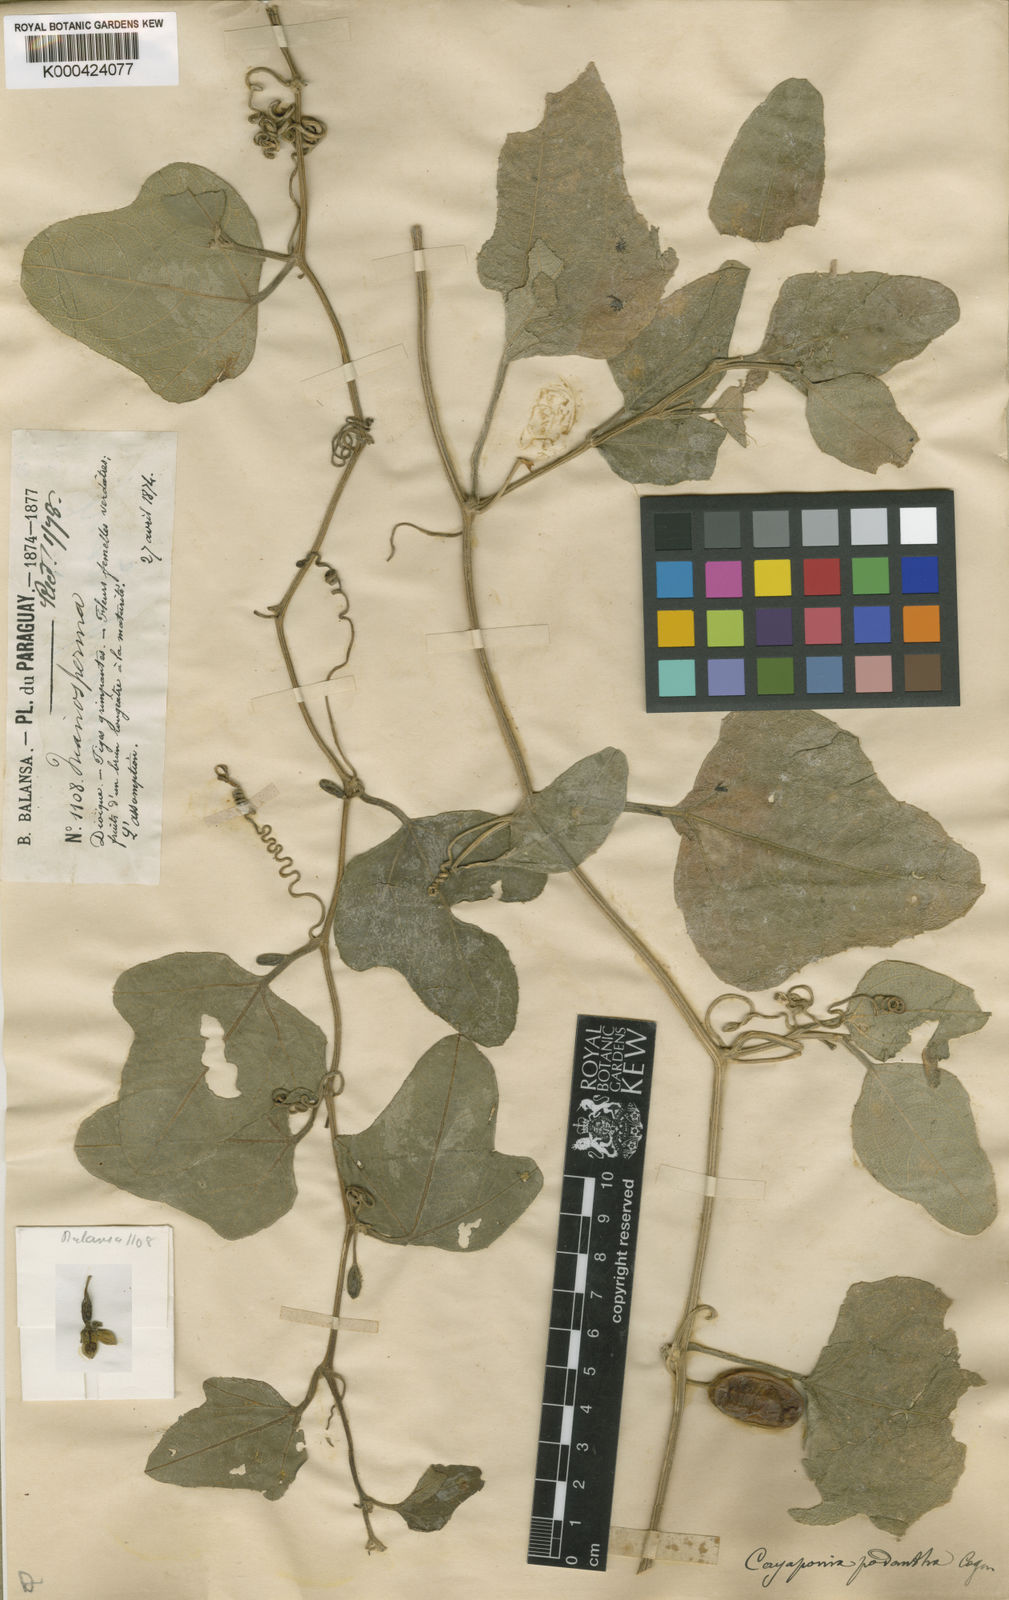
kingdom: Plantae
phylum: Tracheophyta
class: Magnoliopsida
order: Cucurbitales
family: Cucurbitaceae
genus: Cayaponia
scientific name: Cayaponia podantha
